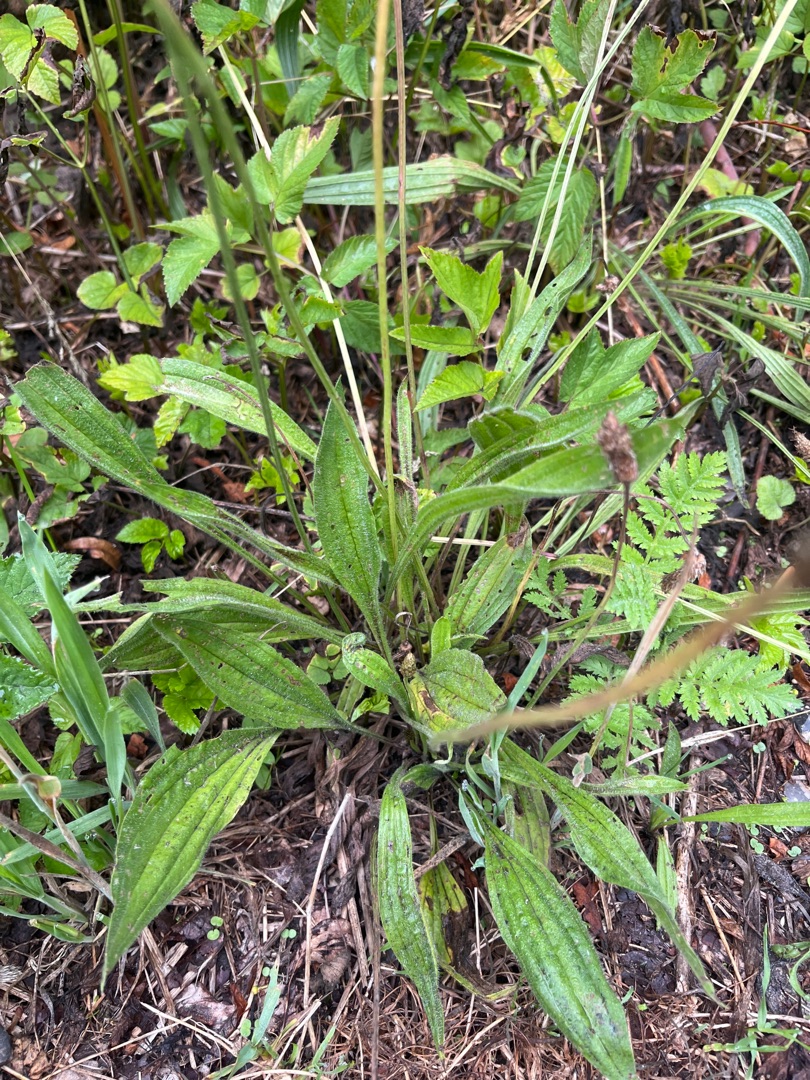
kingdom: Plantae
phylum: Tracheophyta
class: Magnoliopsida
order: Lamiales
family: Plantaginaceae
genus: Plantago
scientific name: Plantago lanceolata
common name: Lancet-vejbred
